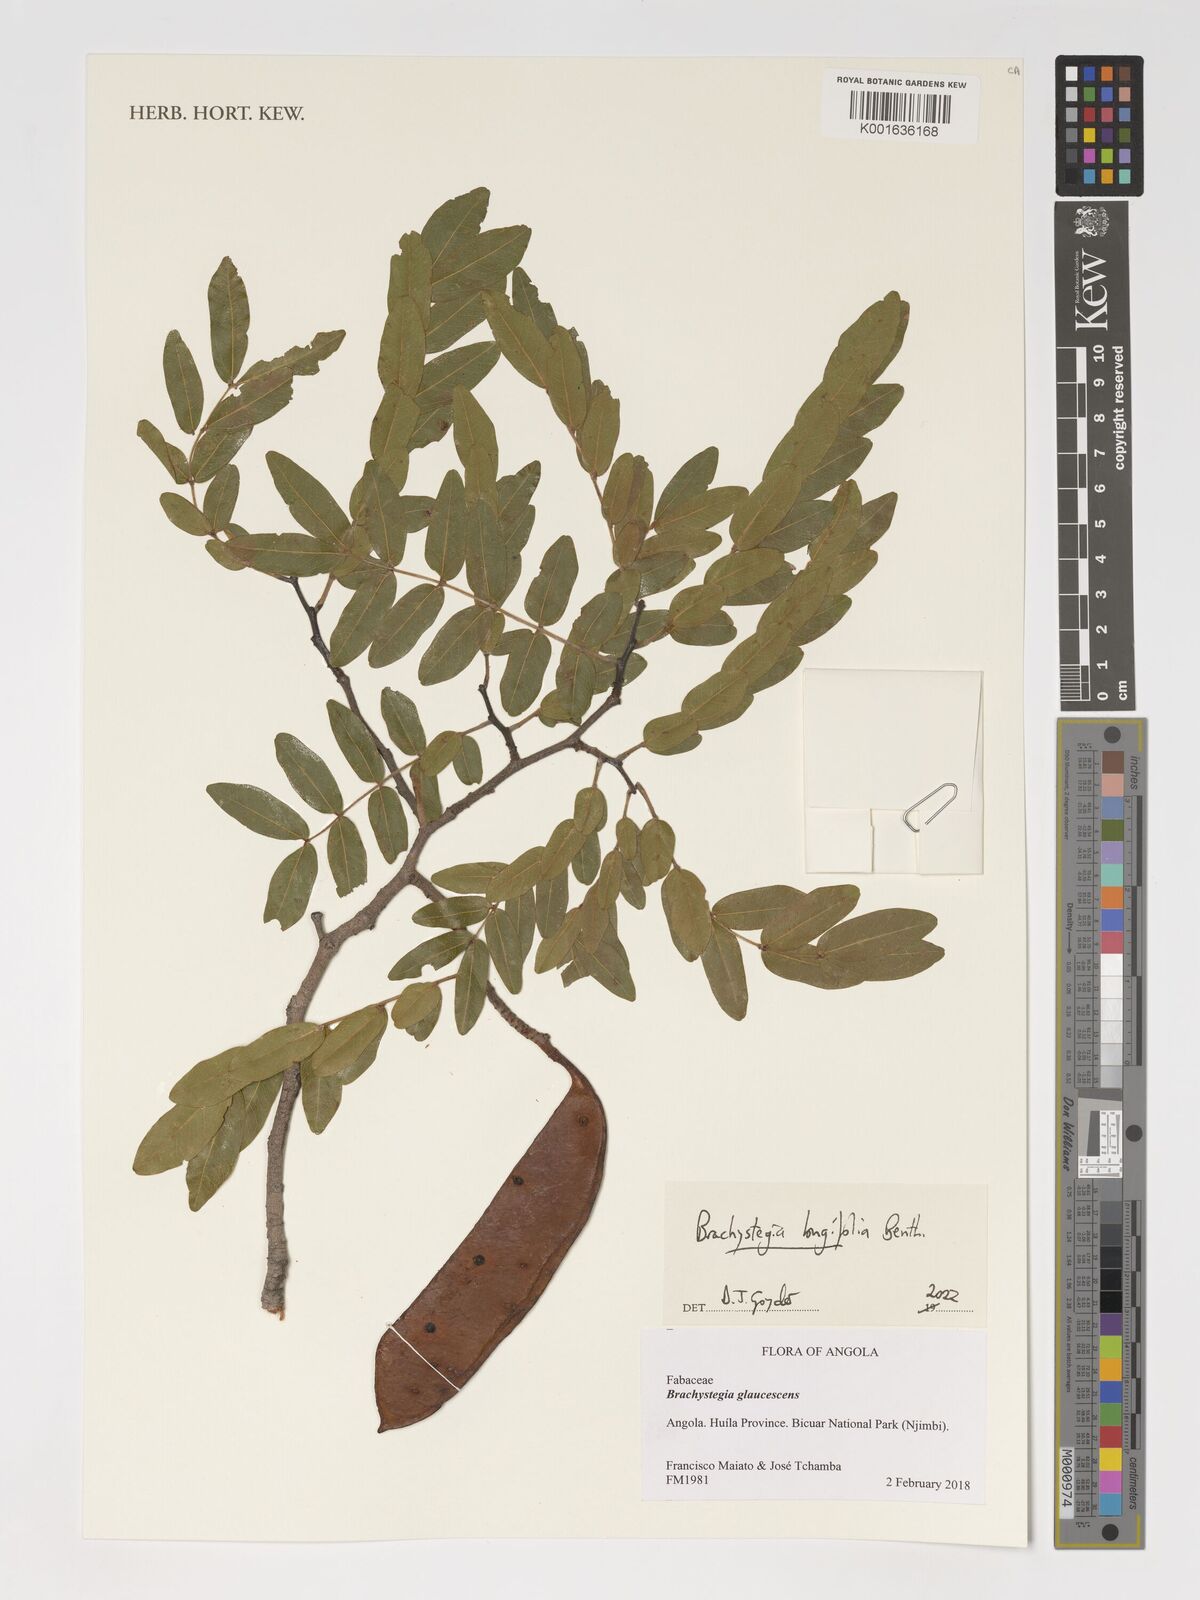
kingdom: Plantae
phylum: Tracheophyta
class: Magnoliopsida
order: Fabales
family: Fabaceae
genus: Brachystegia
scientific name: Brachystegia longifolia
